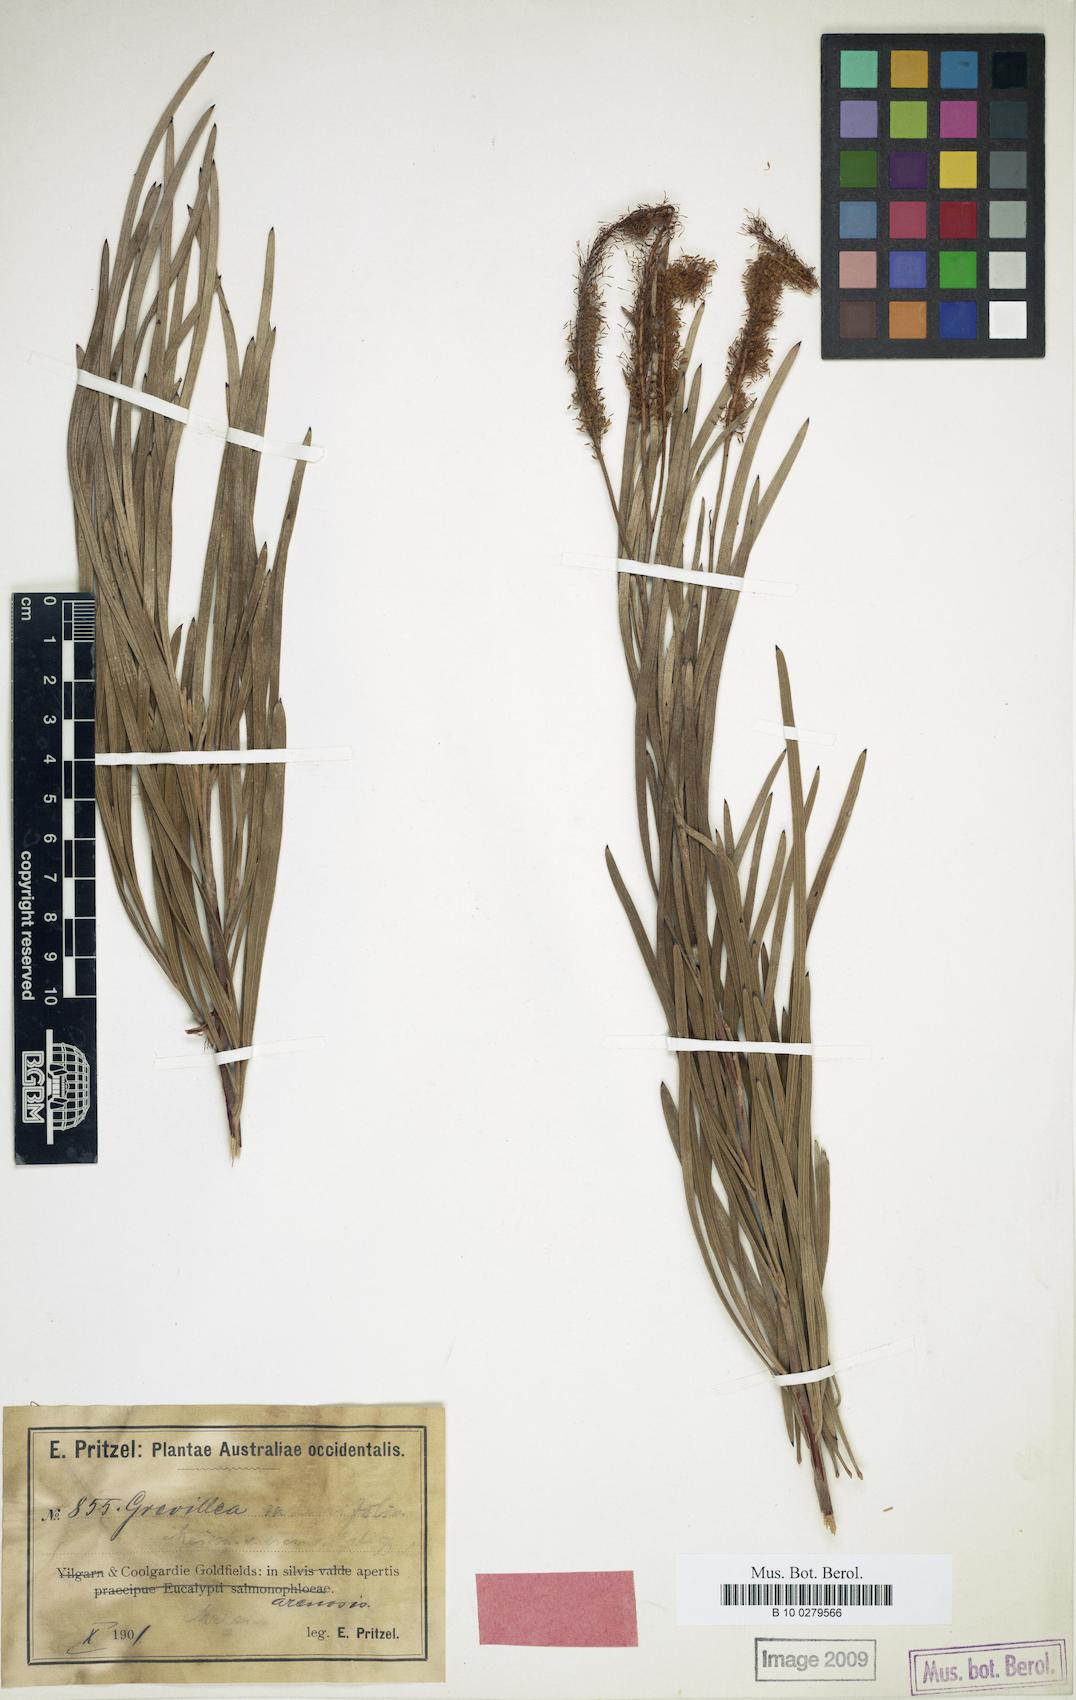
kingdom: Plantae
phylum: Tracheophyta
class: Magnoliopsida
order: Proteales
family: Proteaceae
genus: Grevillea
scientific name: Grevillea eremophila
